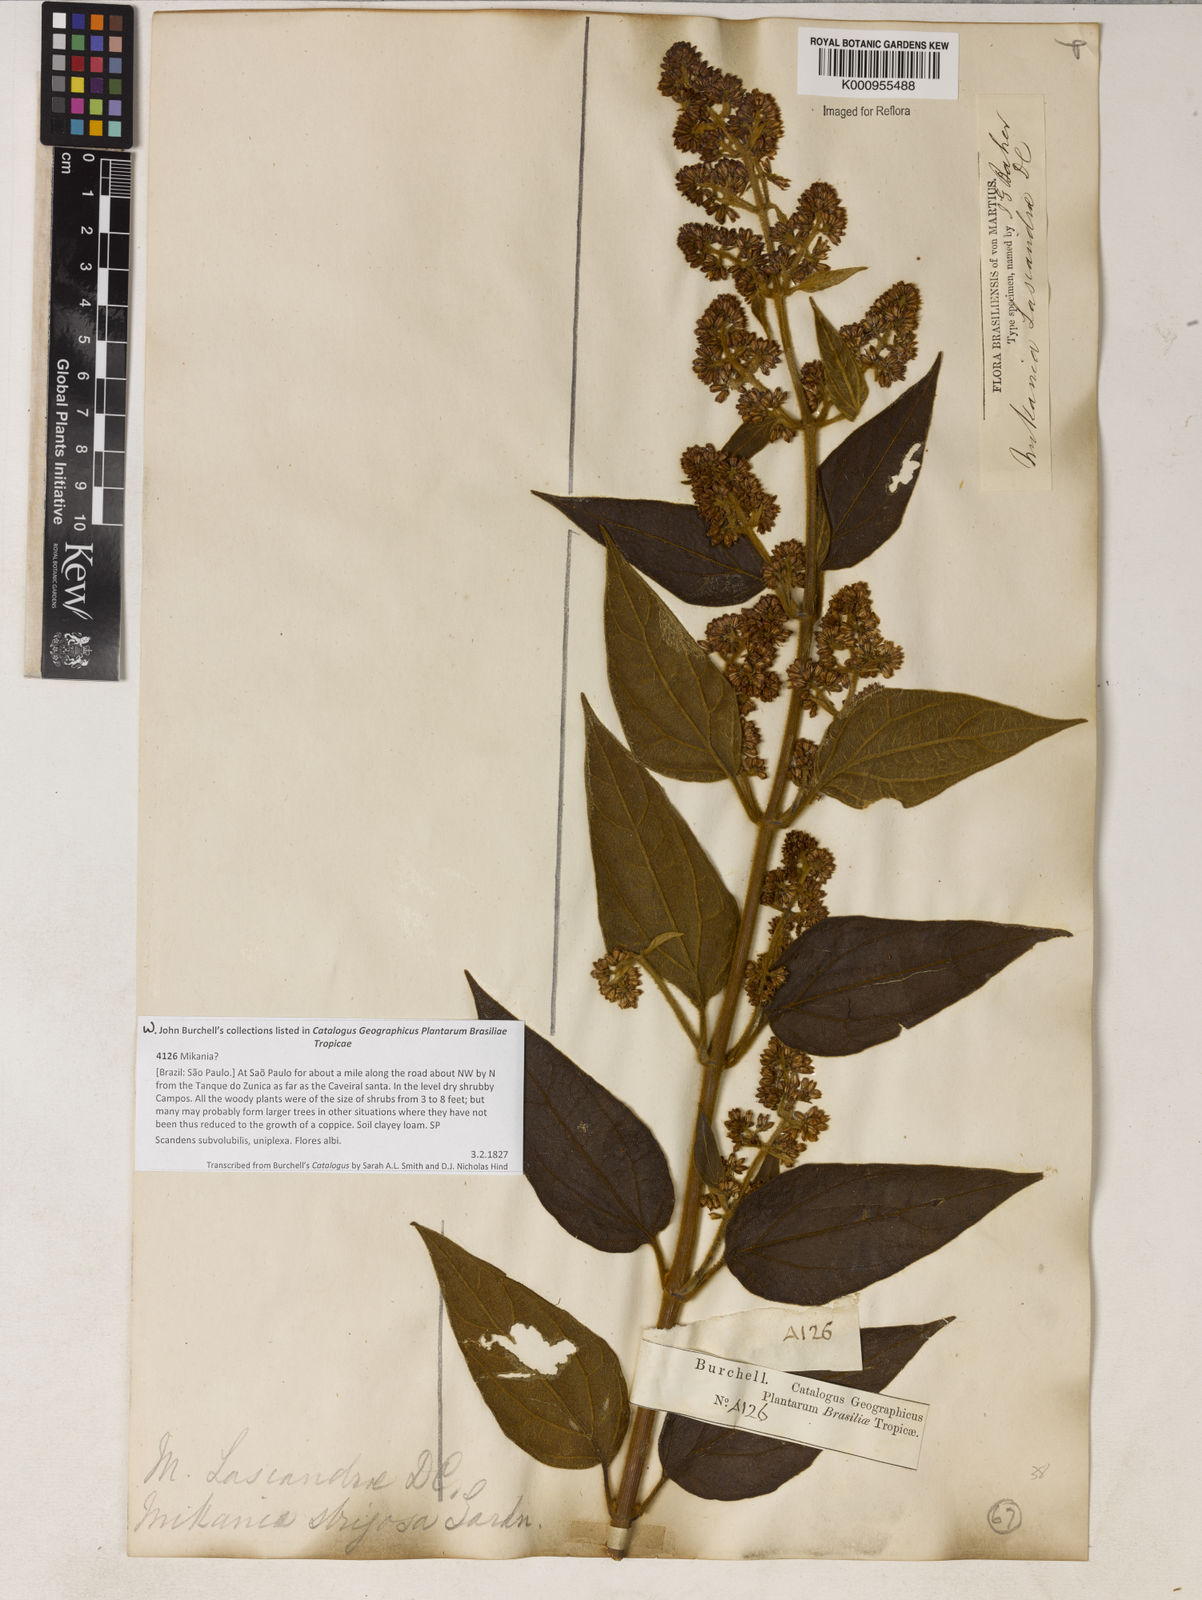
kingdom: Plantae
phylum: Tracheophyta
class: Magnoliopsida
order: Asterales
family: Asteraceae
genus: Mikania
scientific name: Mikania lasiandrae
